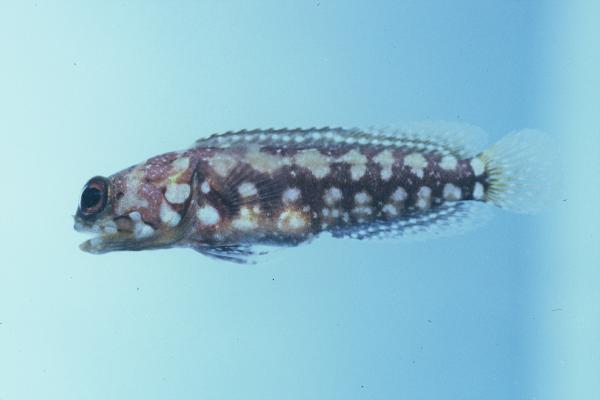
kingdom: Animalia
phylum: Chordata
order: Perciformes
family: Opistognathidae
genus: Opistognathus
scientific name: Opistognathus afer
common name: African jawfish
